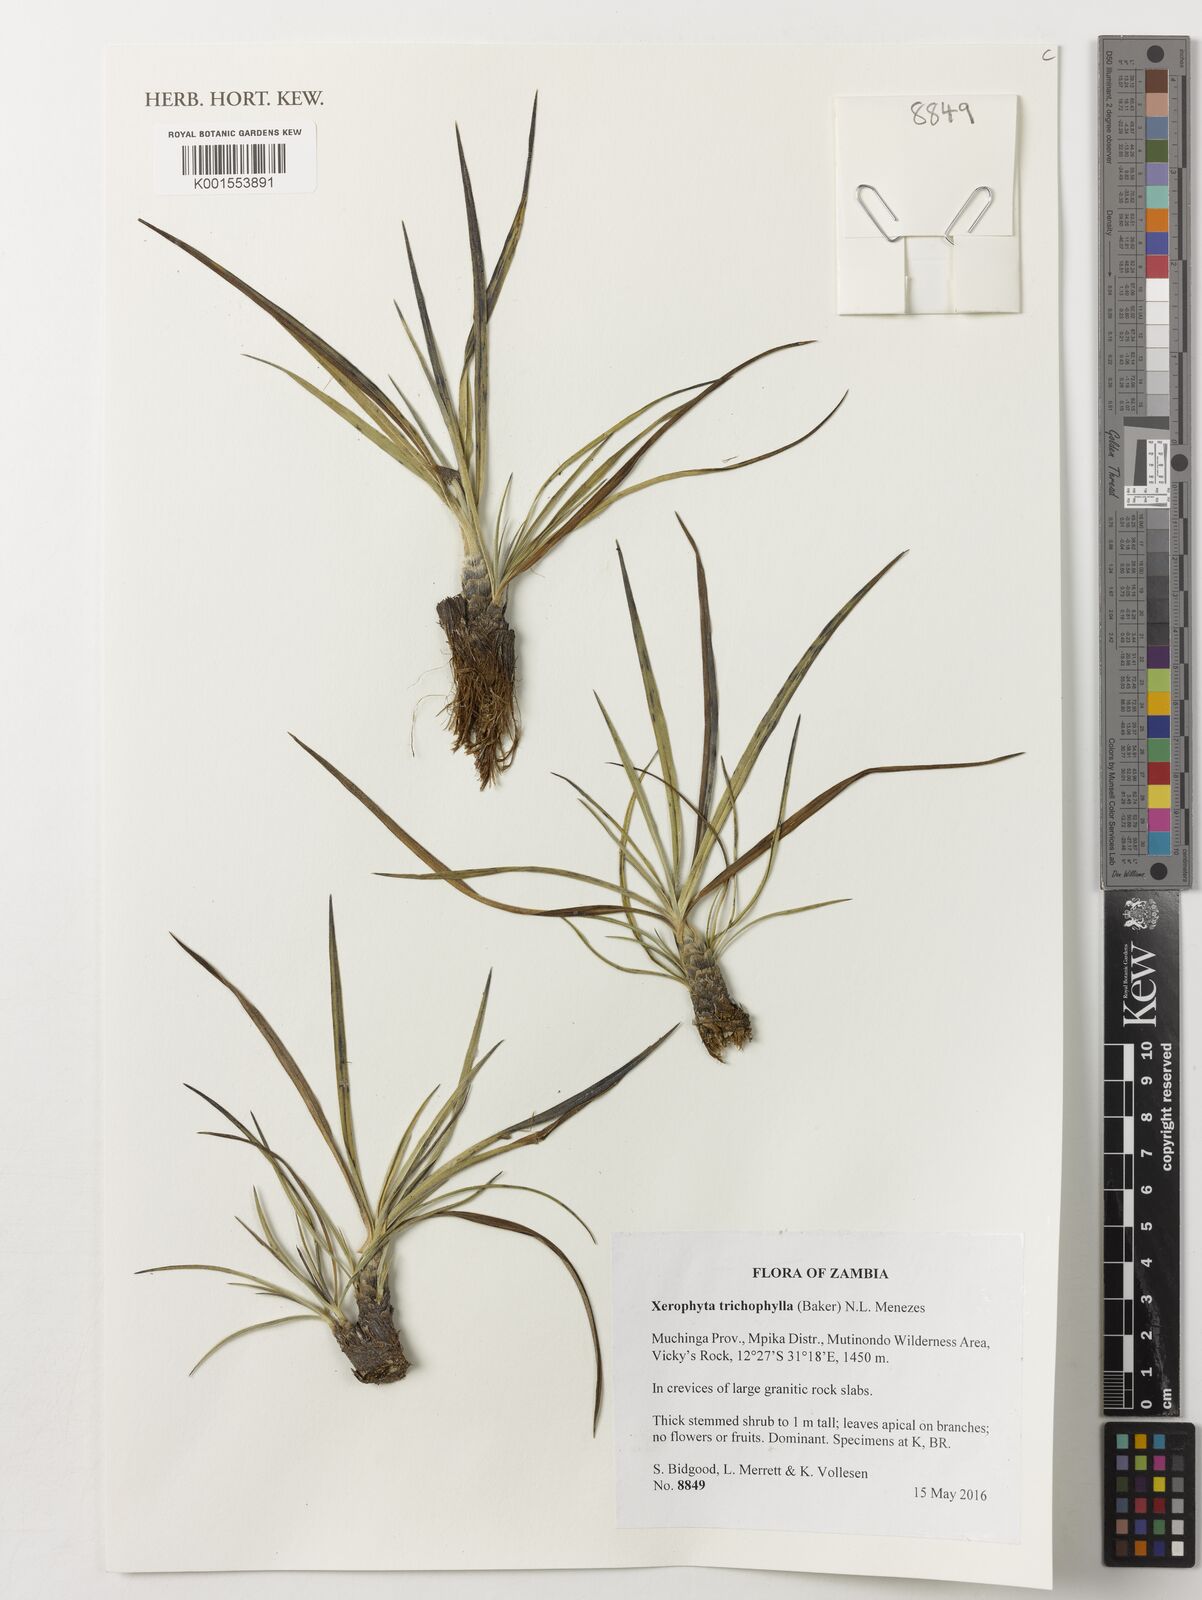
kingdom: Plantae
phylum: Tracheophyta
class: Liliopsida
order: Pandanales
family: Velloziaceae
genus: Xerophyta
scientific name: Xerophyta trichophylla
